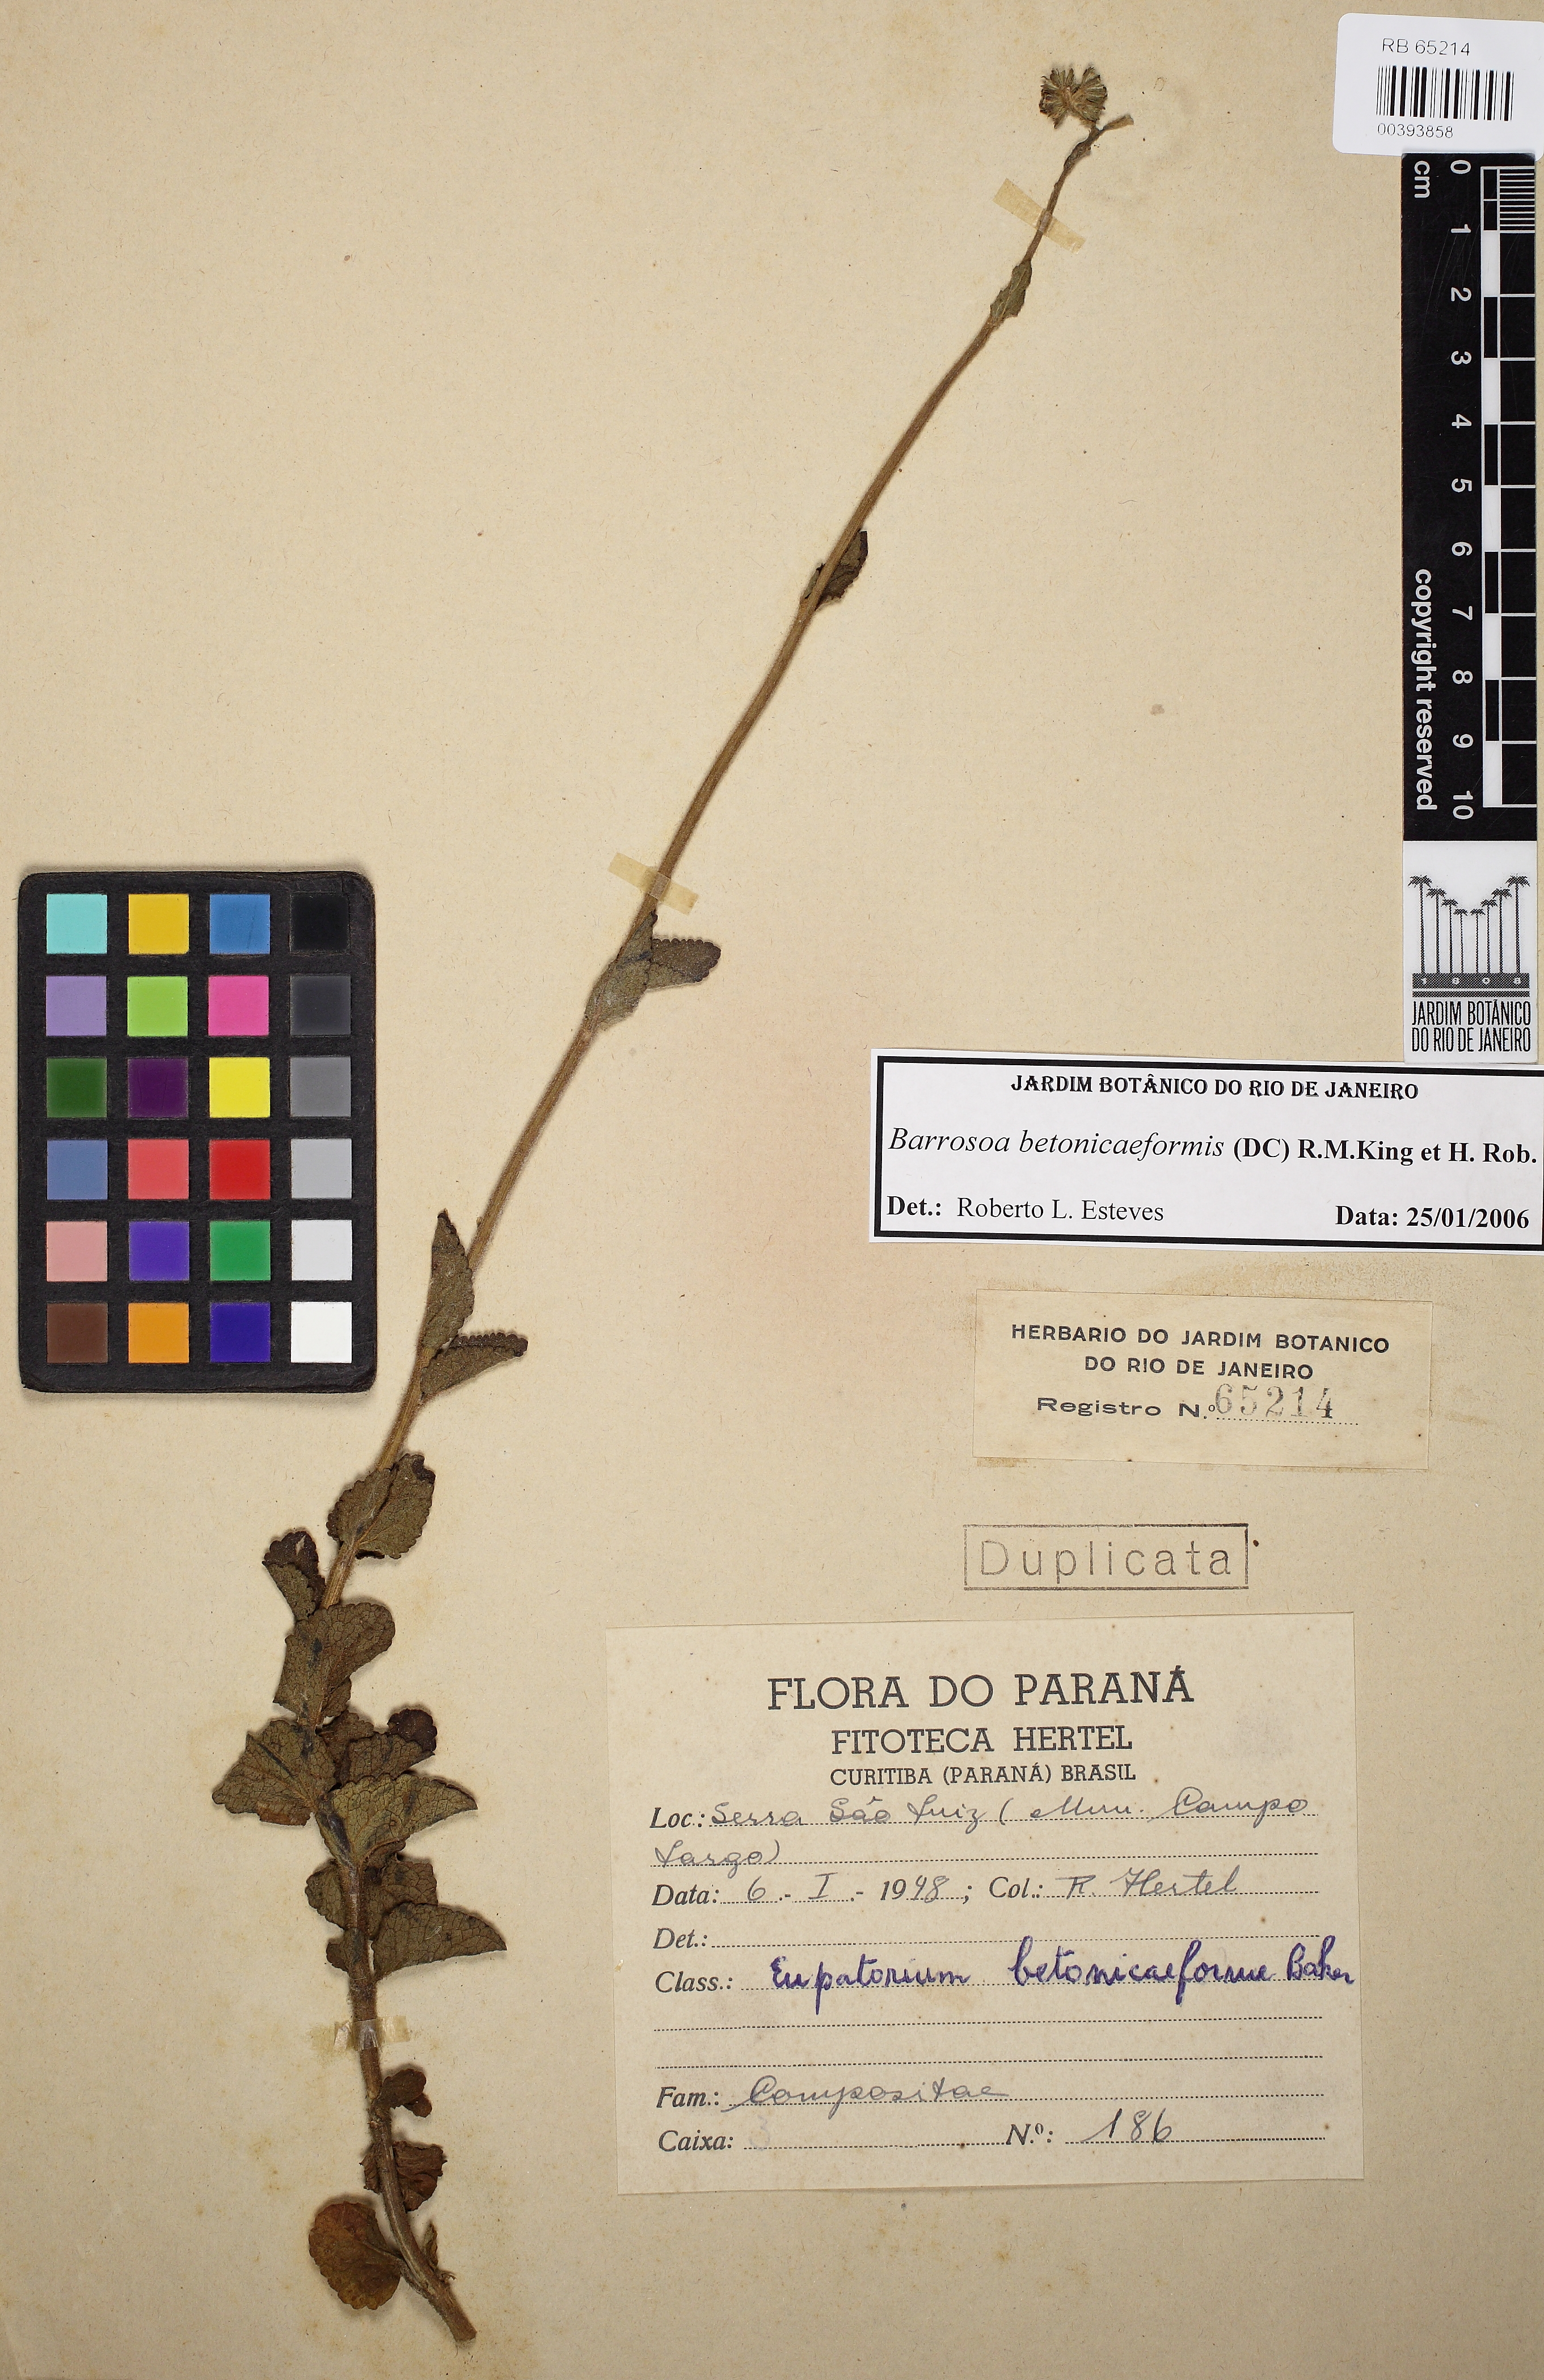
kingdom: Plantae
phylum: Tracheophyta
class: Magnoliopsida
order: Asterales
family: Asteraceae
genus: Barrosoa
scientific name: Barrosoa betoniciformis
